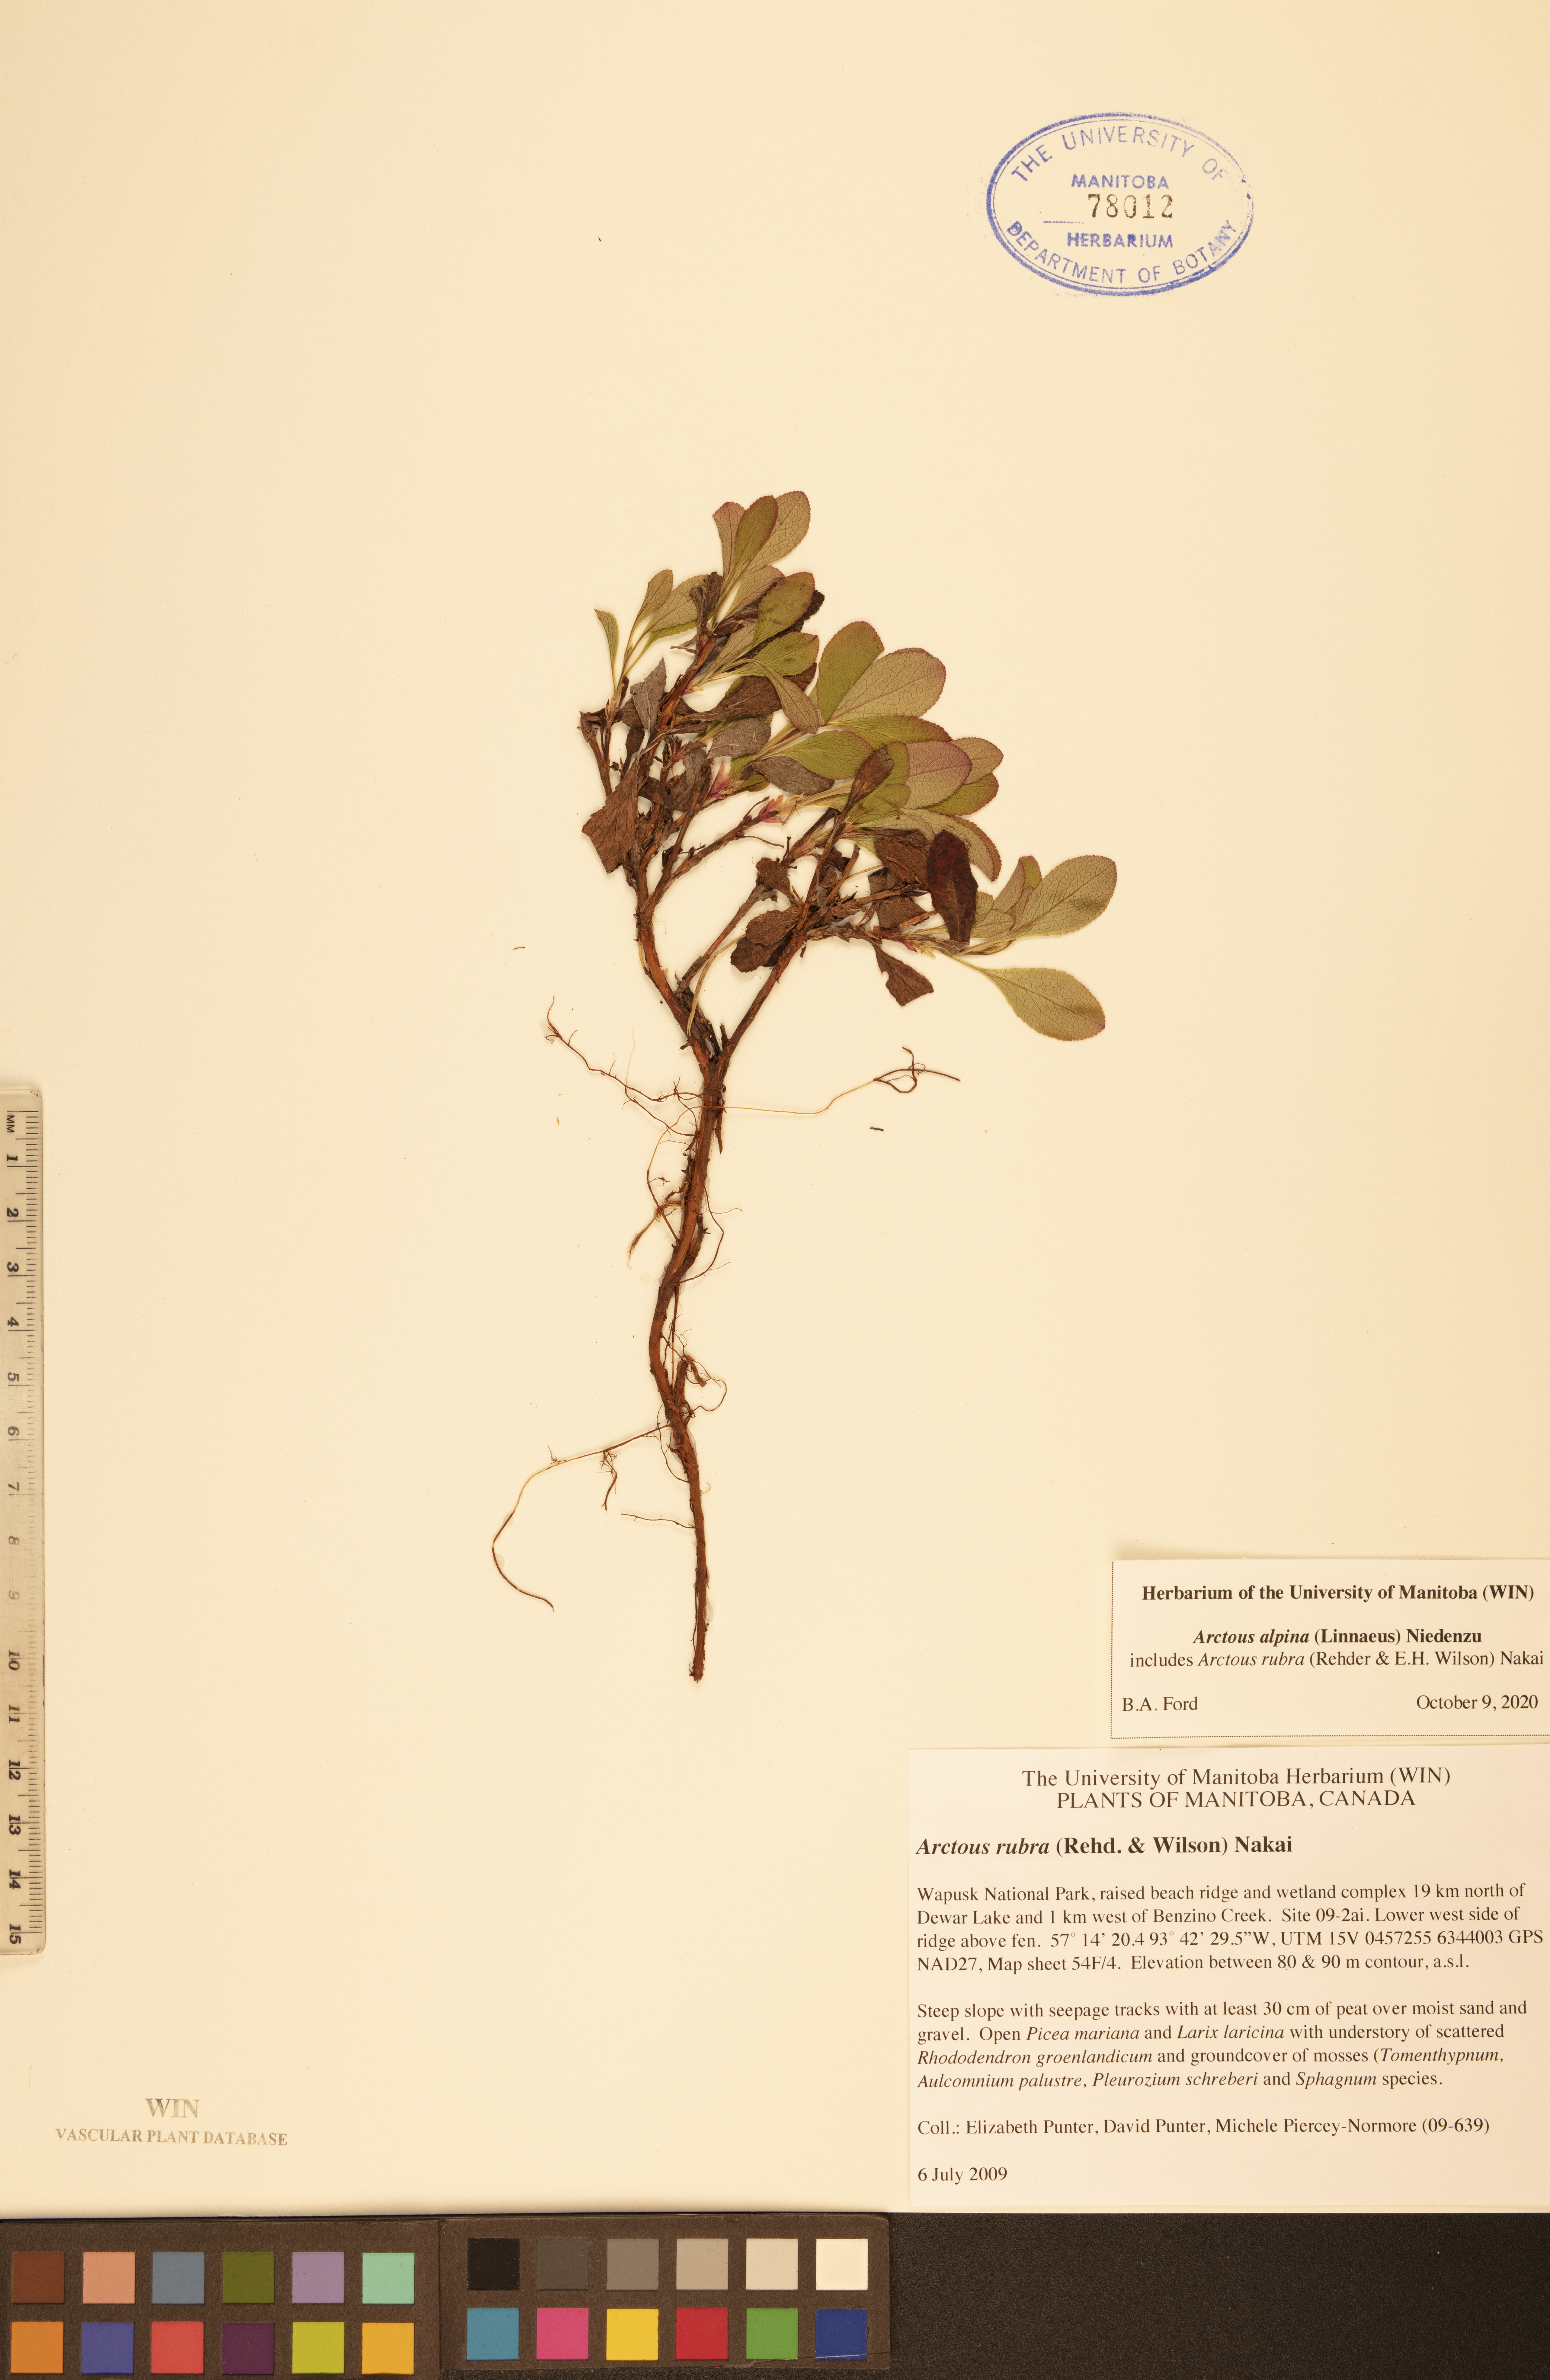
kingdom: Plantae
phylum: Tracheophyta
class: Magnoliopsida
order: Ericales
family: Ericaceae
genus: Arctostaphylos
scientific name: Arctostaphylos alpinus
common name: Alpine bearberry
